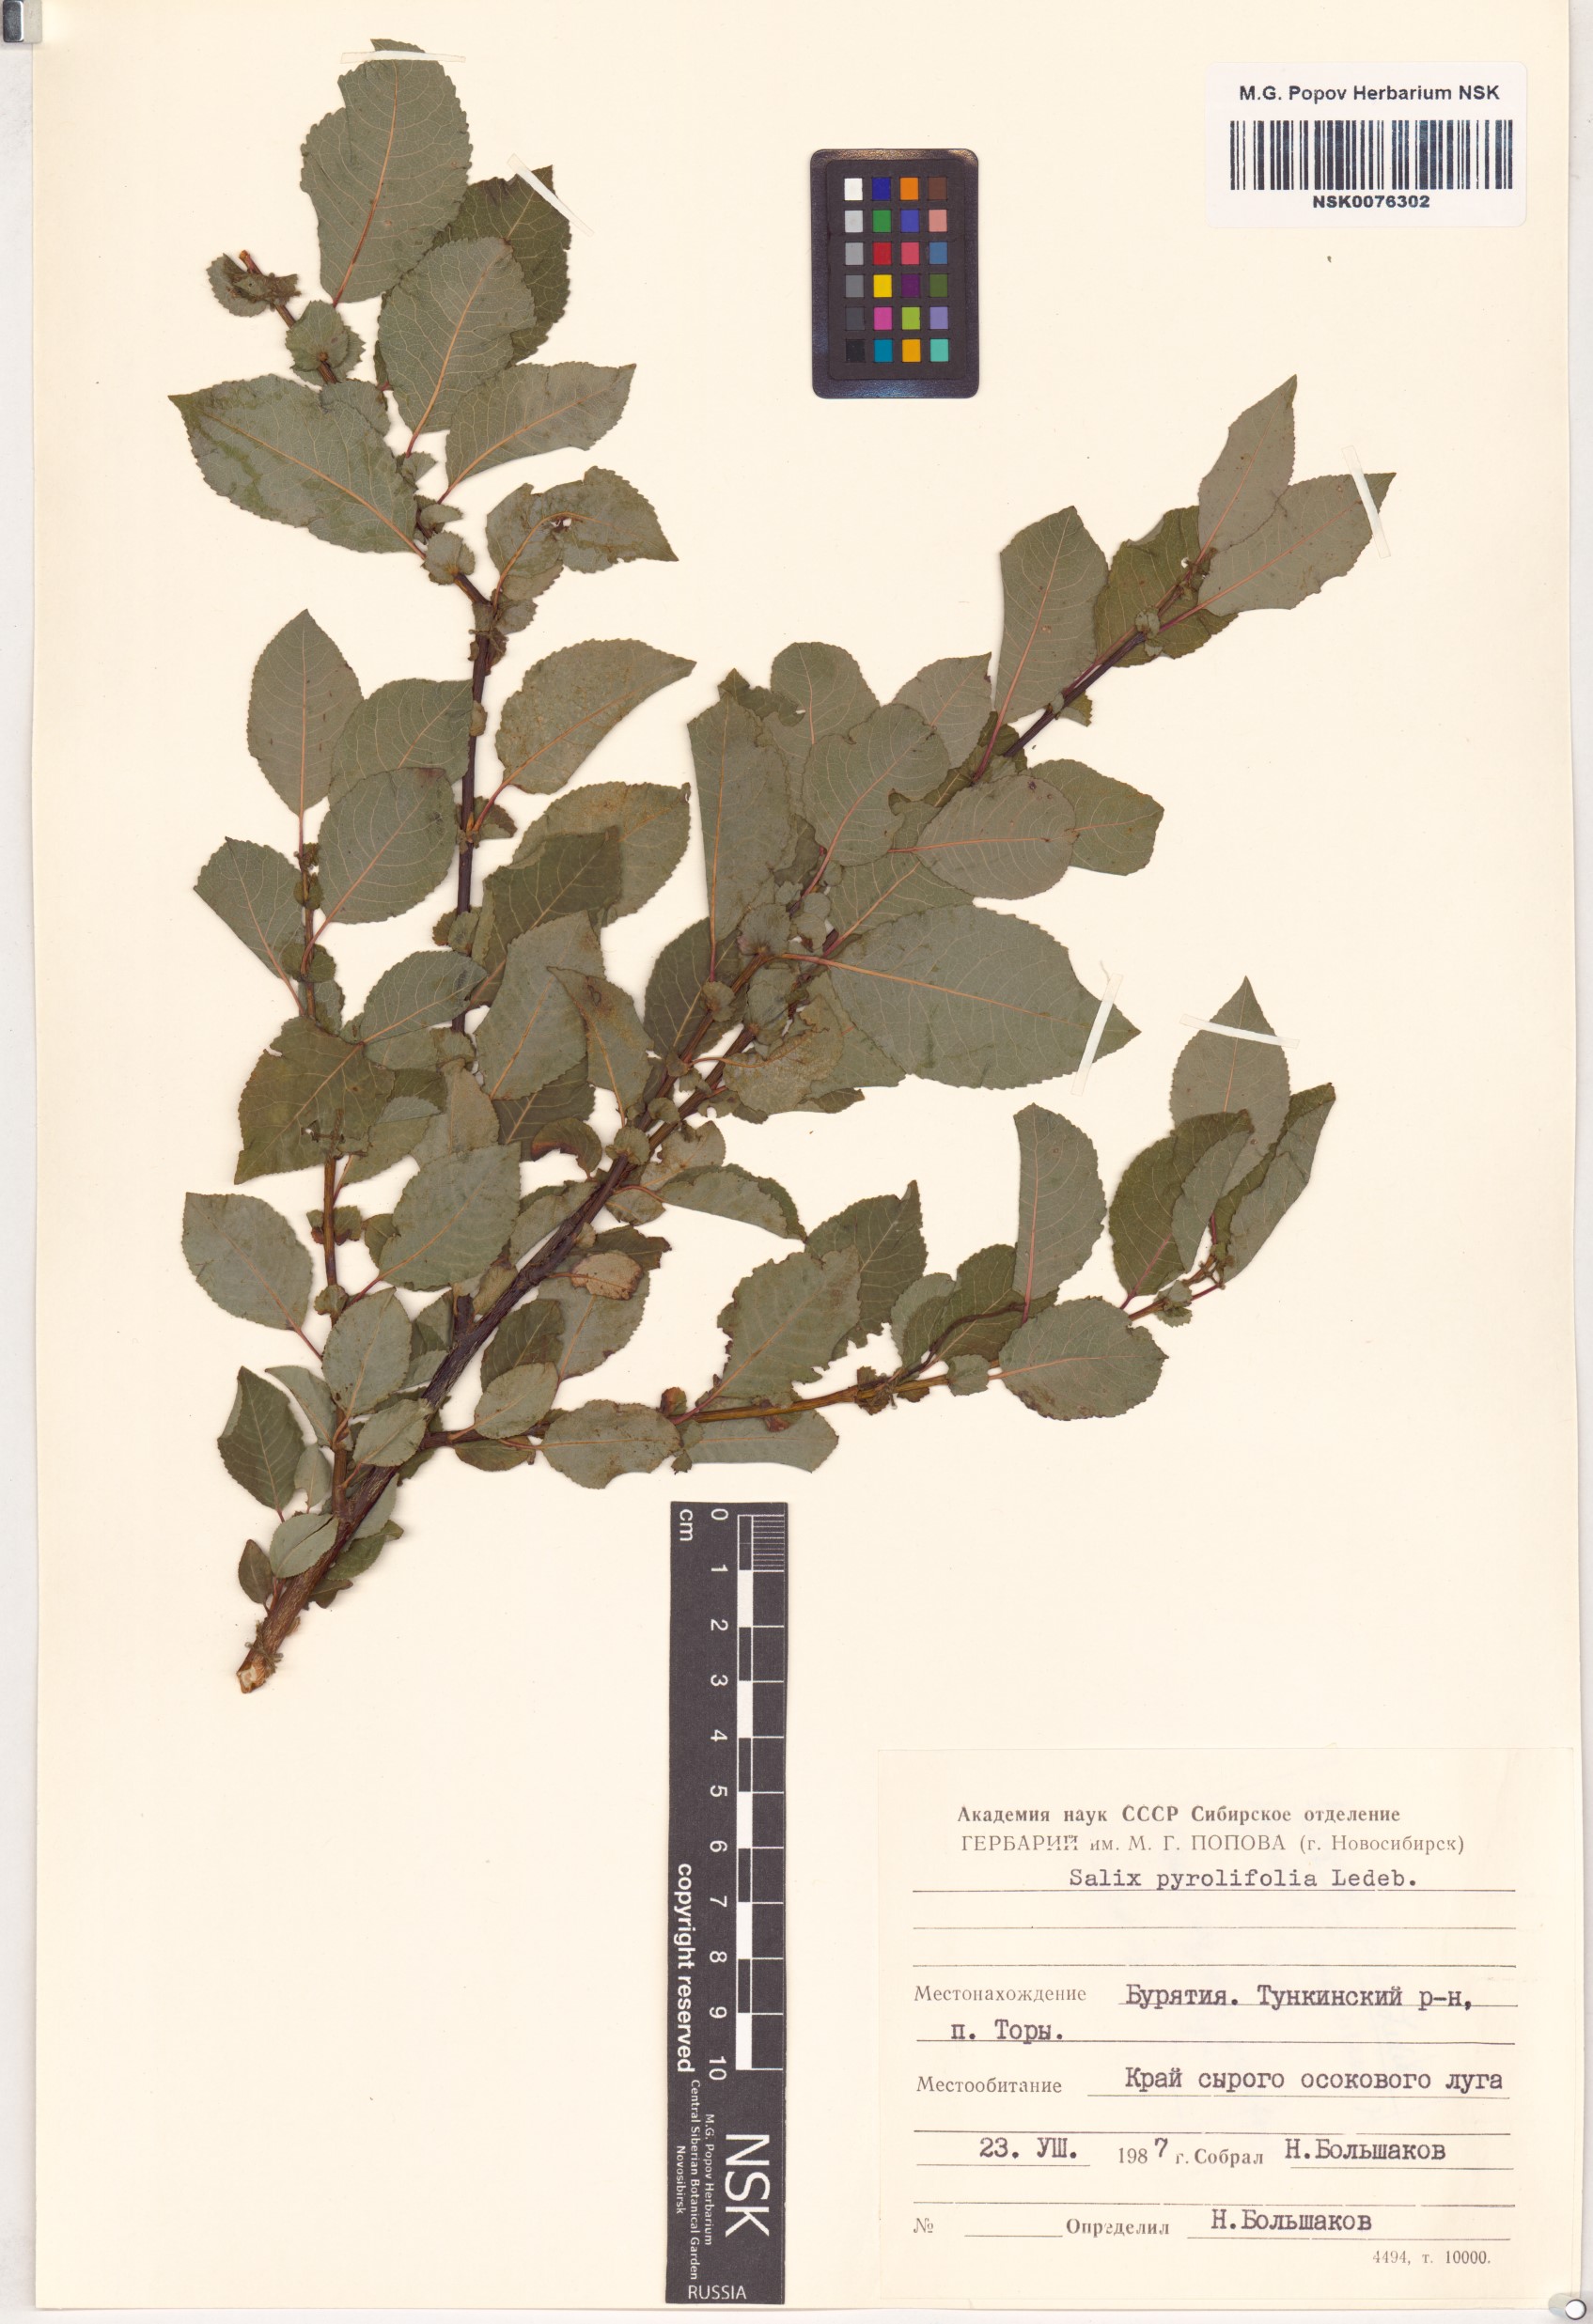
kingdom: Plantae
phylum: Tracheophyta
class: Magnoliopsida
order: Malpighiales
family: Salicaceae
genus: Salix
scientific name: Salix pyrolifolia
